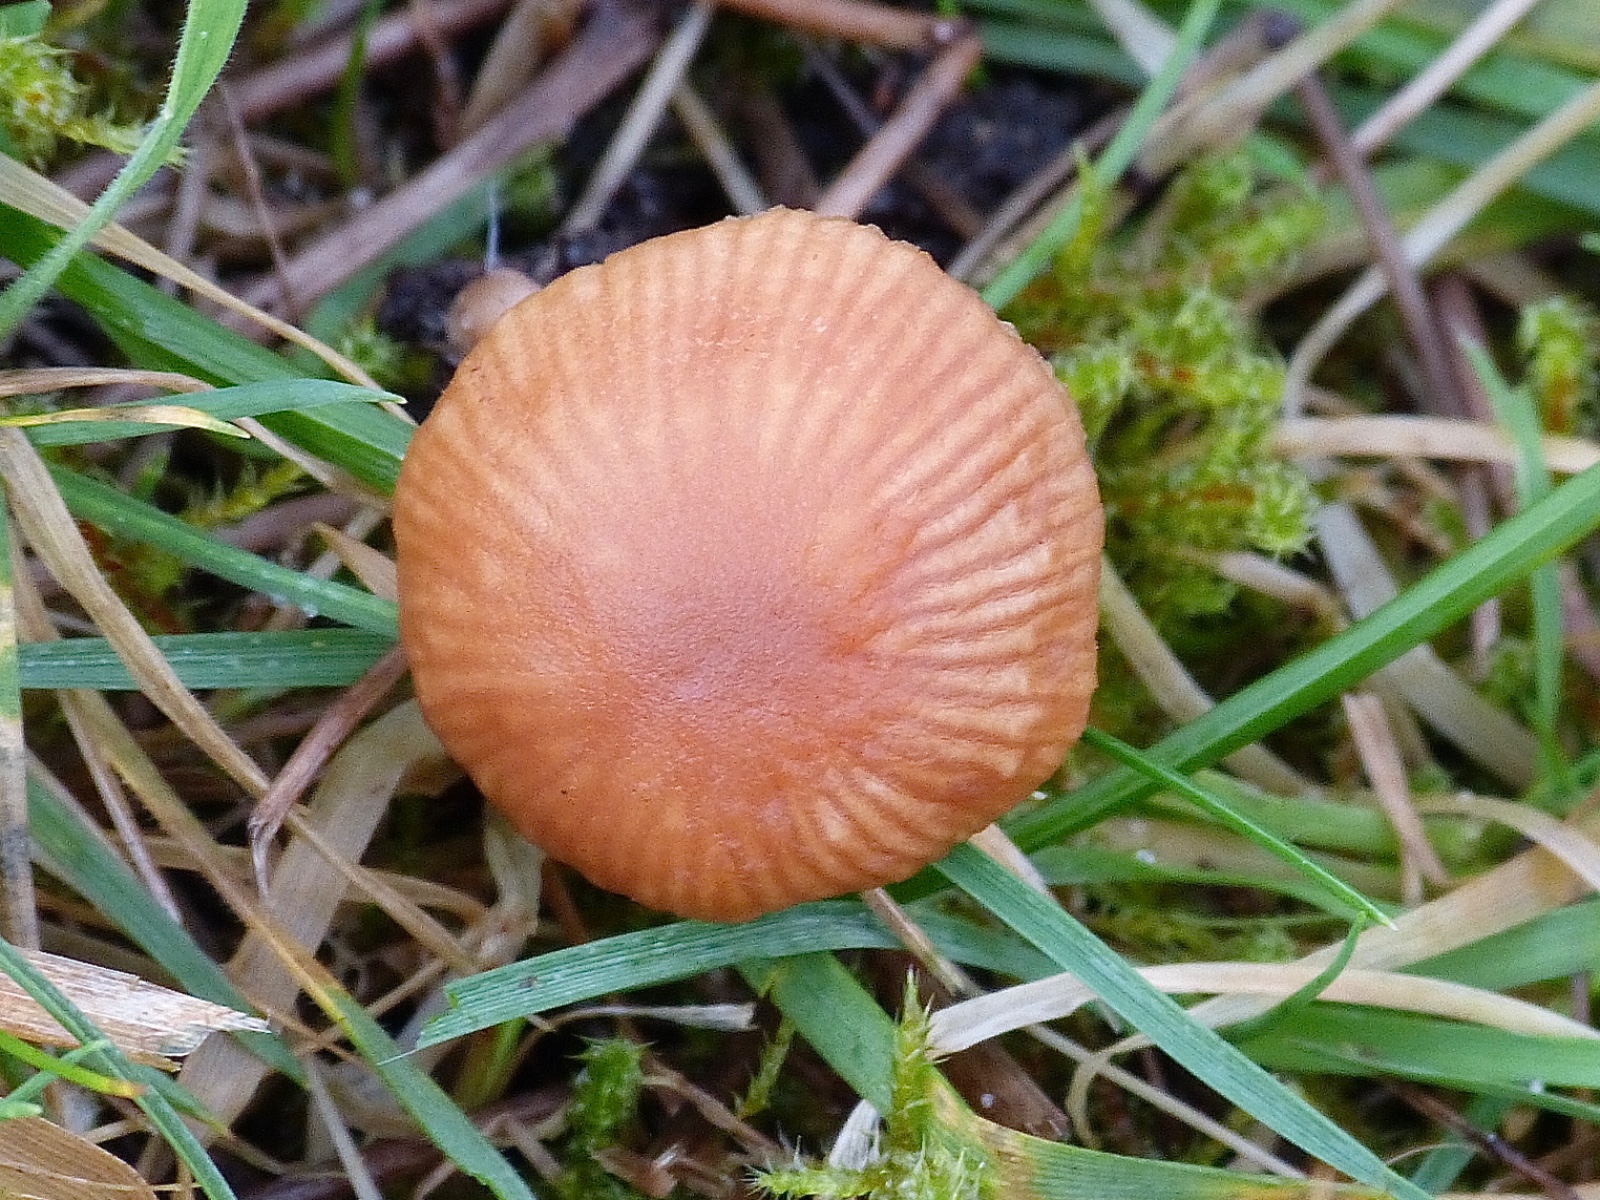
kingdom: Fungi
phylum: Basidiomycota
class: Agaricomycetes
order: Agaricales
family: Tubariaceae
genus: Tubaria
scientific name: Tubaria furfuracea
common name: kliddet fnughat
